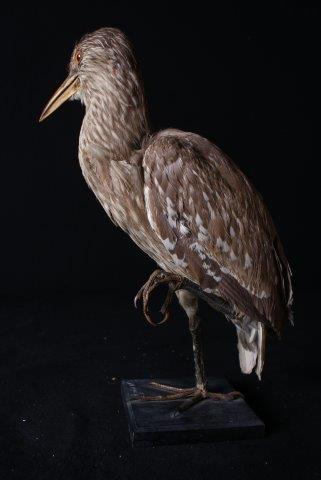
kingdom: Animalia
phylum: Chordata
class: Aves
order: Pelecaniformes
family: Ardeidae
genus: Nycticorax
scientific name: Nycticorax nycticorax
